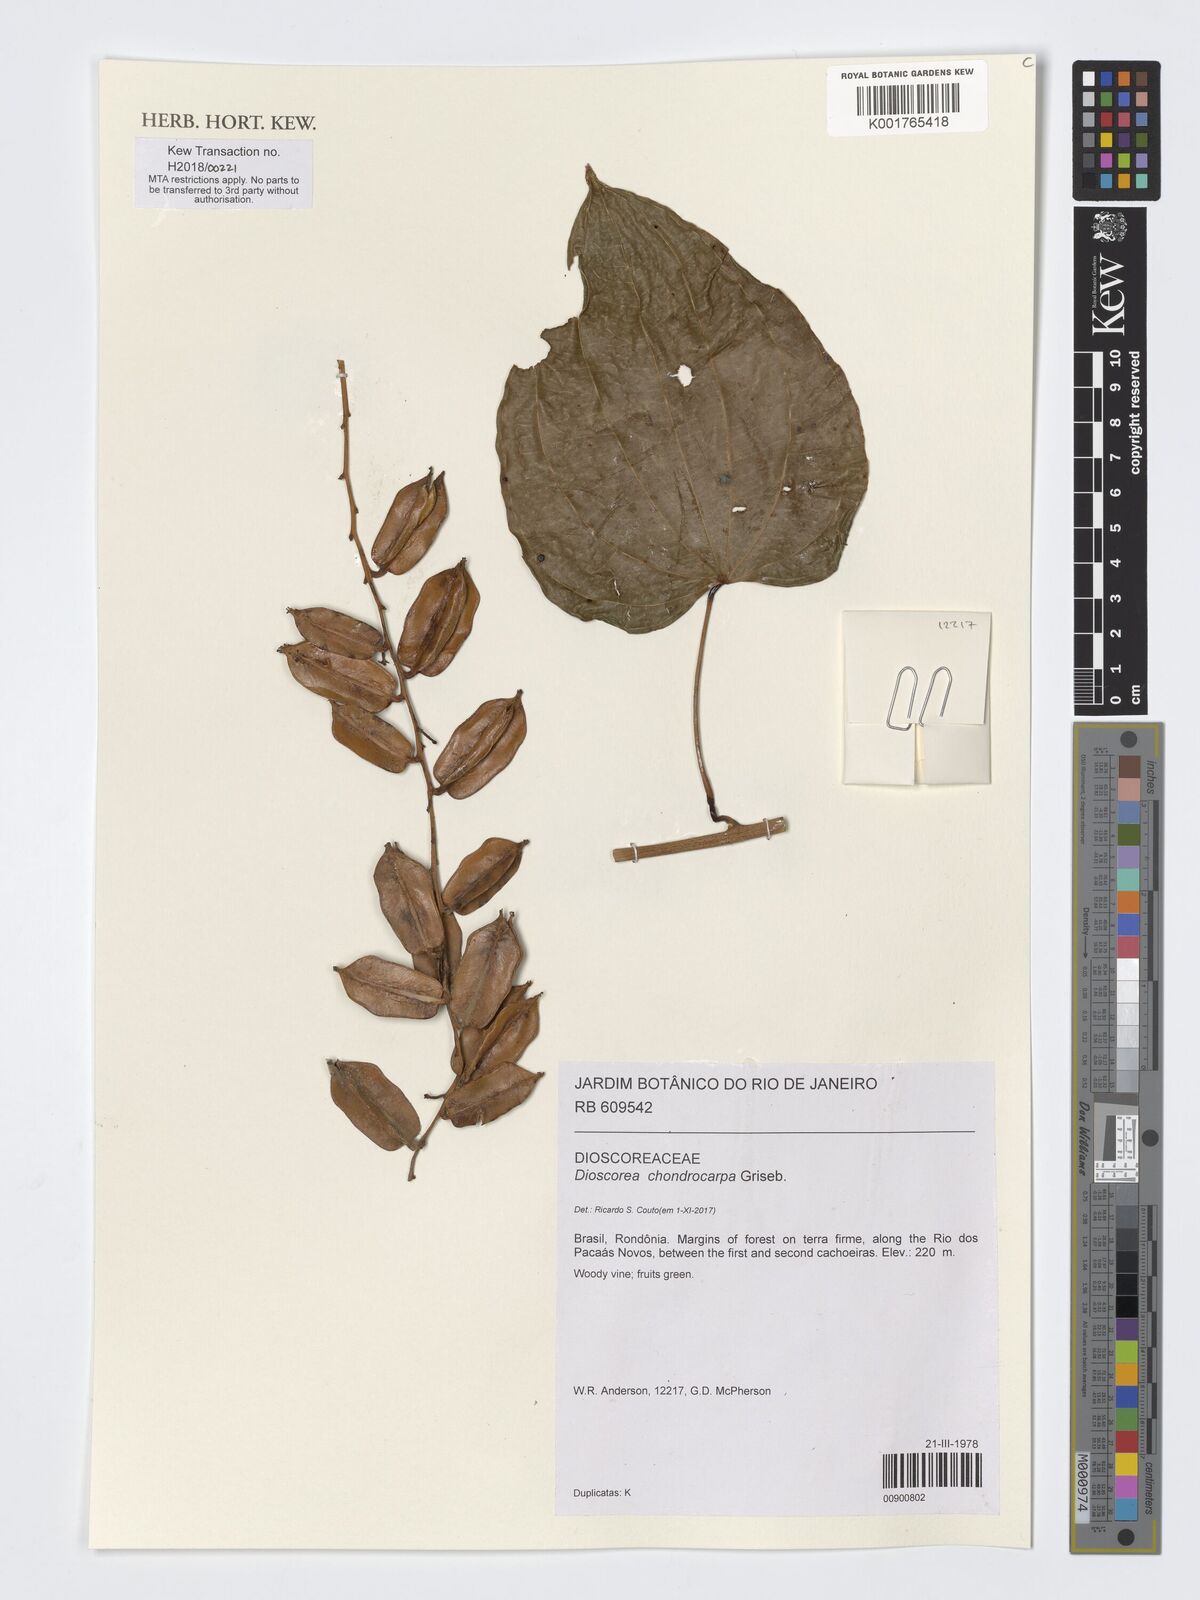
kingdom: Plantae
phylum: Tracheophyta
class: Liliopsida
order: Dioscoreales
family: Dioscoreaceae
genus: Dioscorea
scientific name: Dioscorea chondrocarpa
